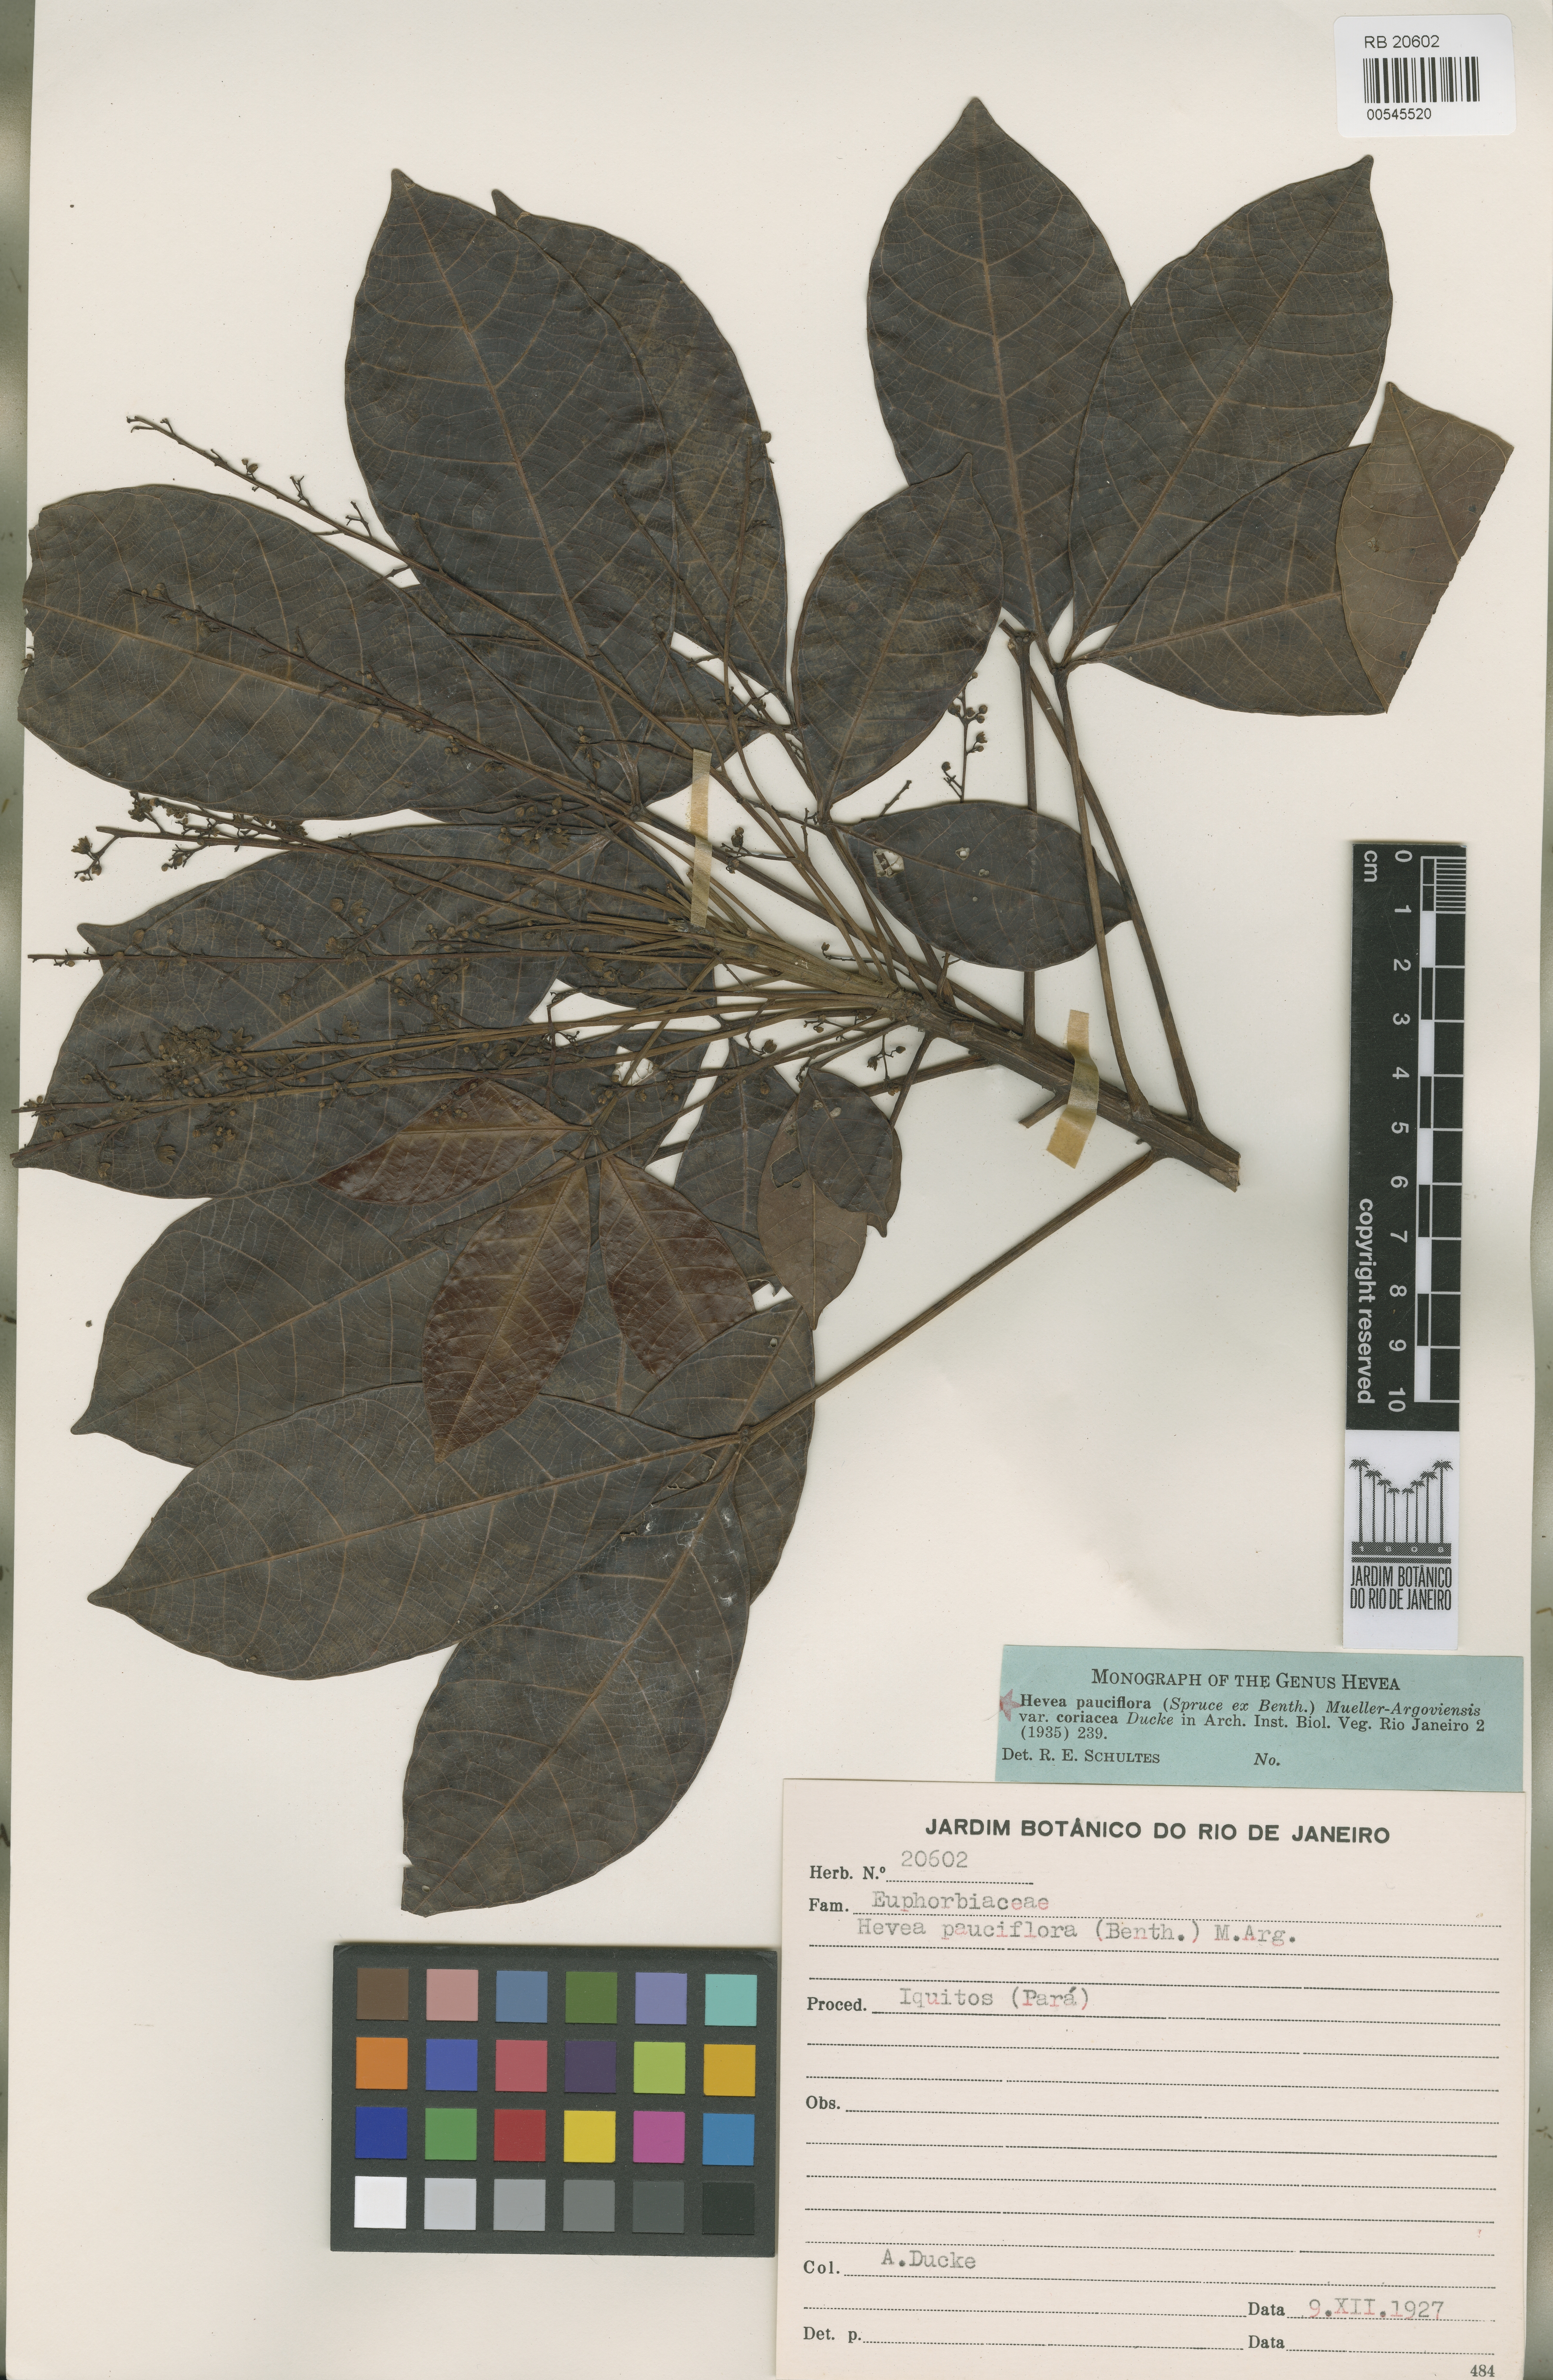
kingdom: Plantae
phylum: Tracheophyta
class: Magnoliopsida
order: Malpighiales
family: Euphorbiaceae
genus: Hevea
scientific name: Hevea pauciflora
